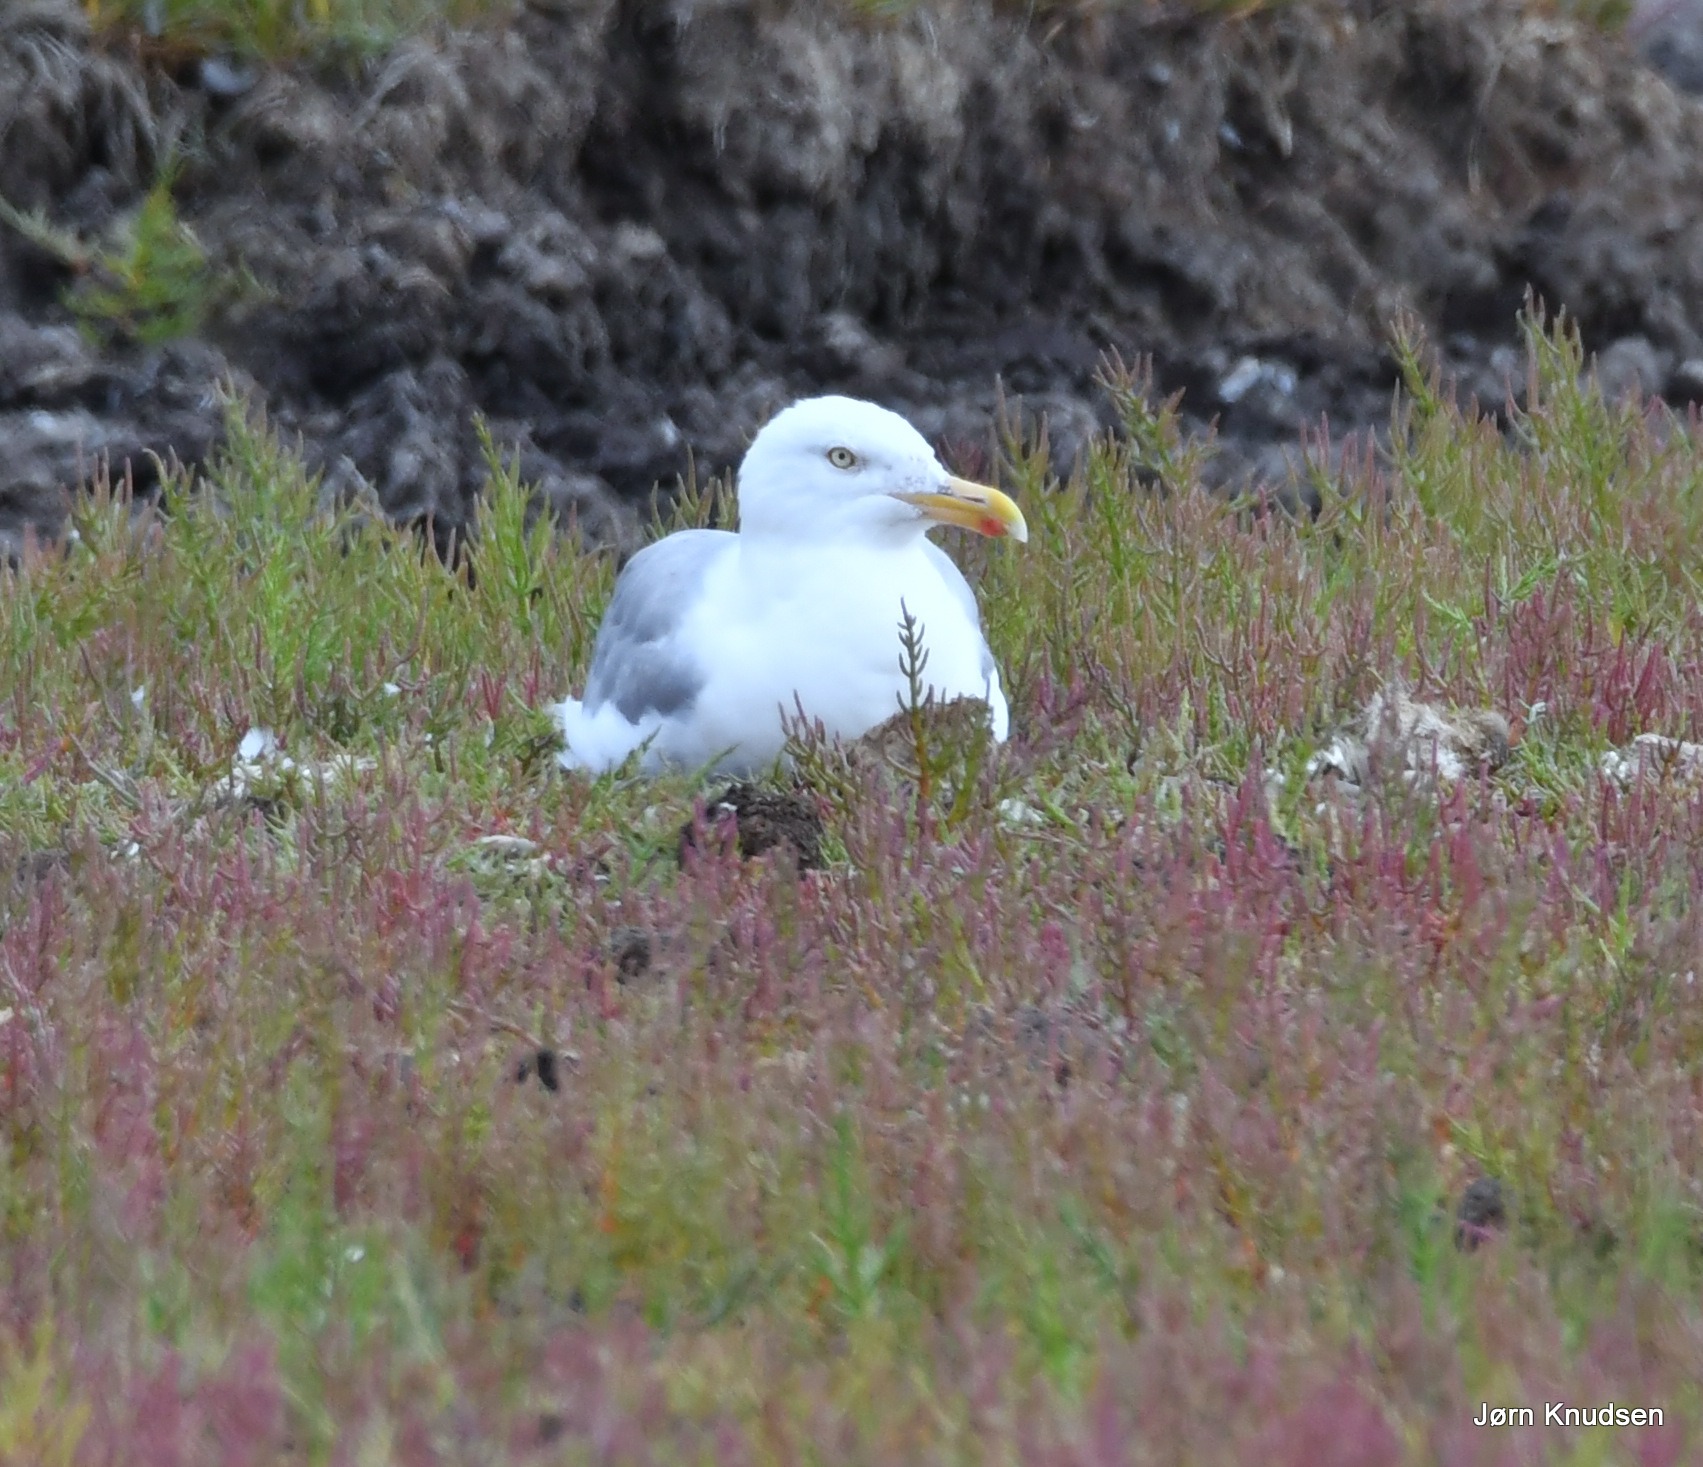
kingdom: Animalia
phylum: Chordata
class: Aves
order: Charadriiformes
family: Laridae
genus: Larus
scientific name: Larus argentatus
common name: Sølvmåge
